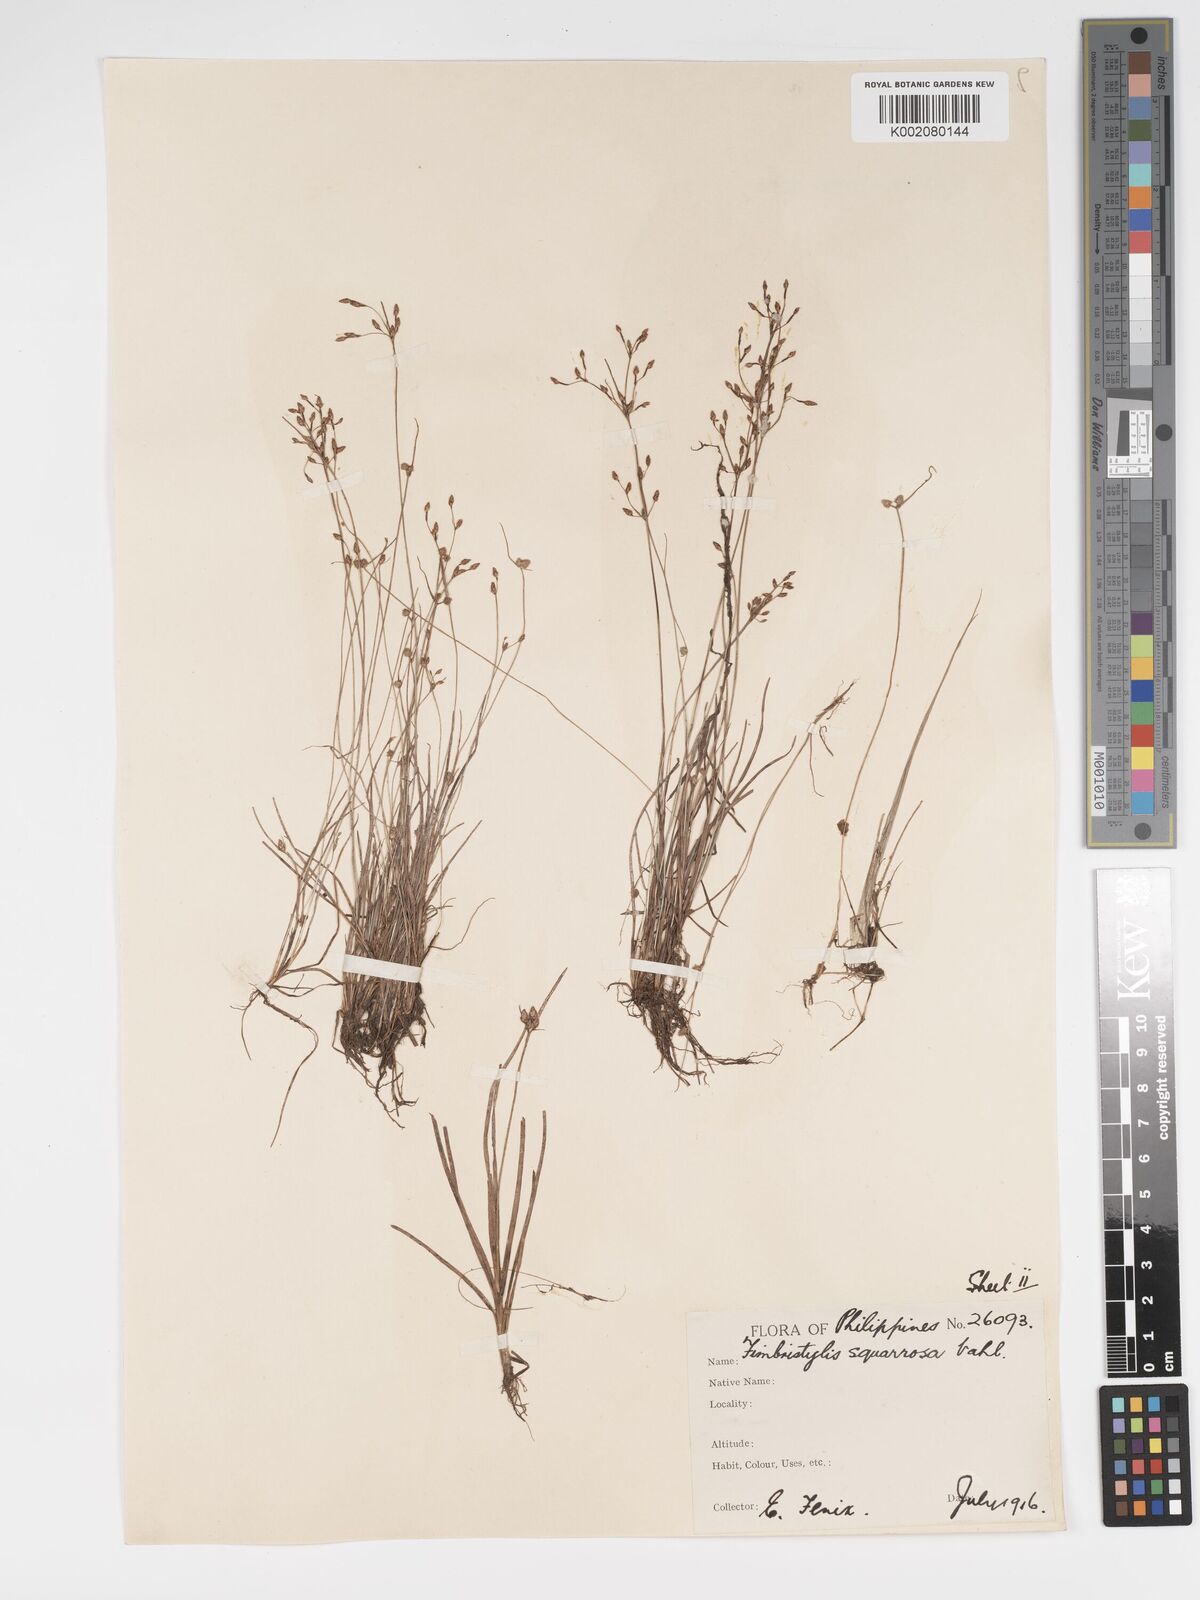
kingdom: Plantae
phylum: Tracheophyta
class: Liliopsida
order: Poales
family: Cyperaceae
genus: Fimbristylis
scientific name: Fimbristylis merrillii
